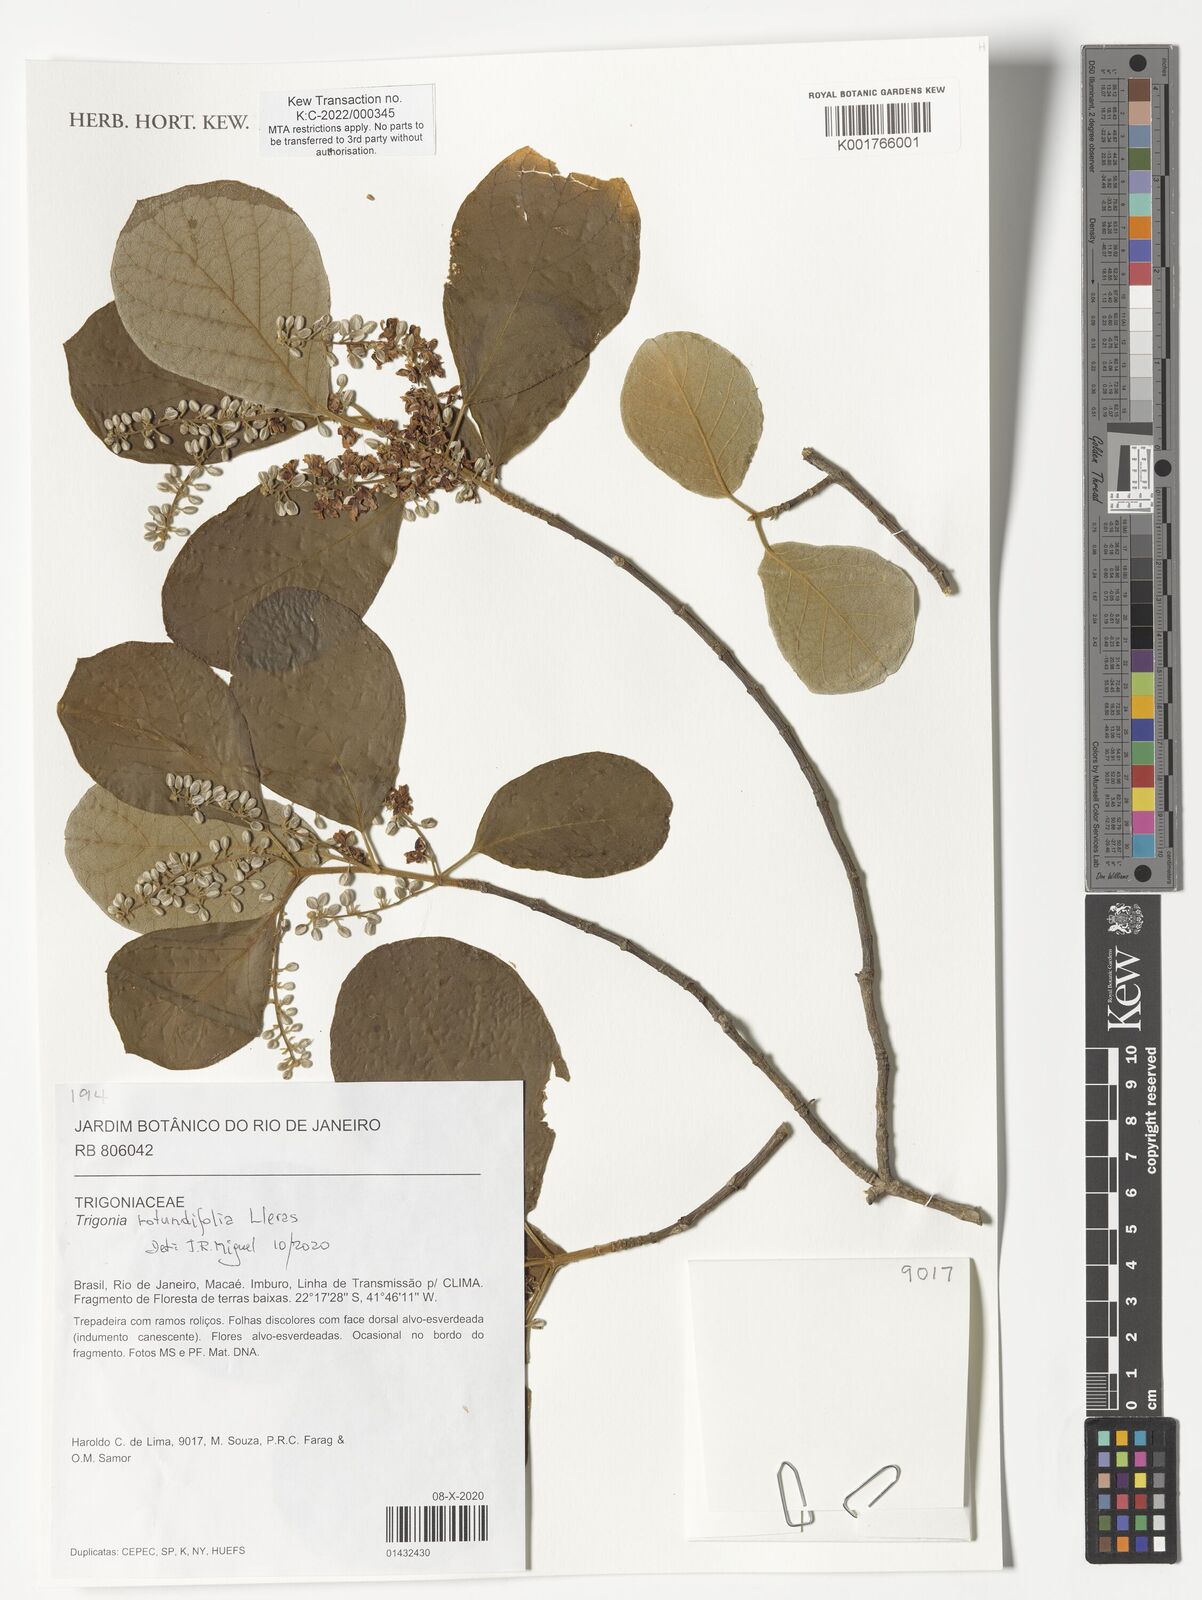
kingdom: Plantae
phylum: Tracheophyta
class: Magnoliopsida
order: Malpighiales
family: Trigoniaceae
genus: Trigonia
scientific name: Trigonia rotundifolia
